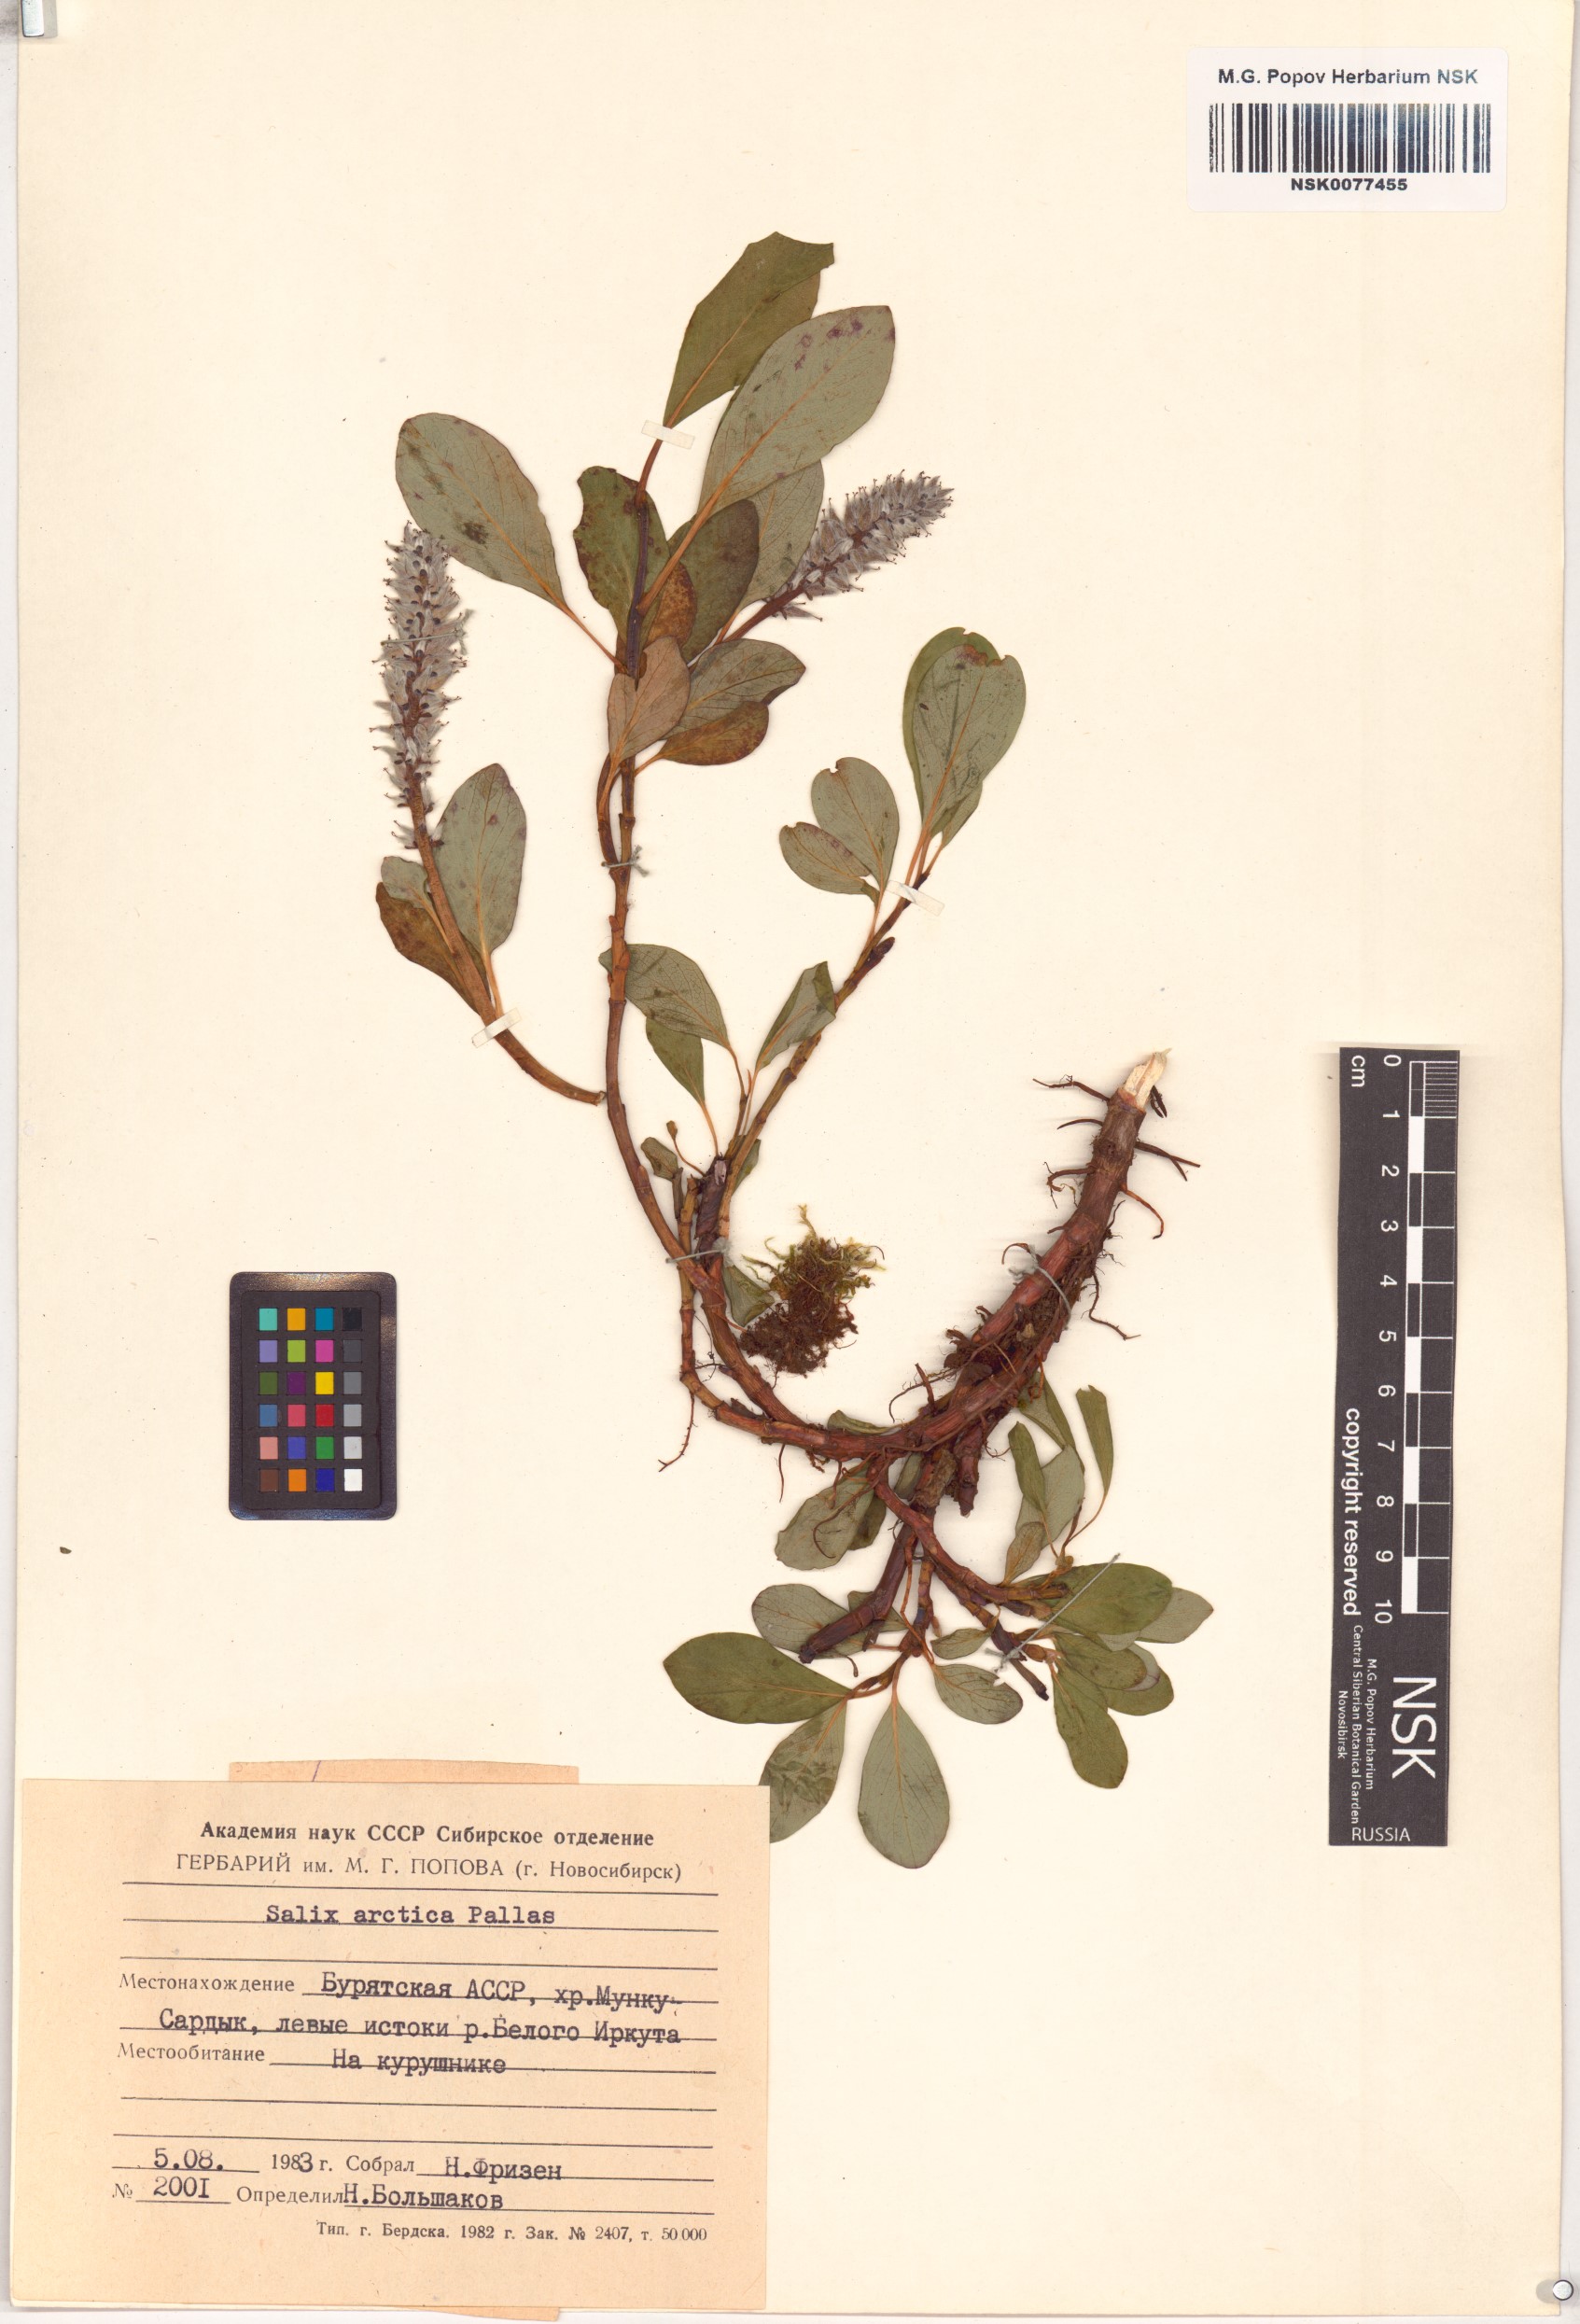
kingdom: Plantae
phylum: Tracheophyta
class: Magnoliopsida
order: Malpighiales
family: Salicaceae
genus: Salix
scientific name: Salix arctica
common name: Arctic willow
